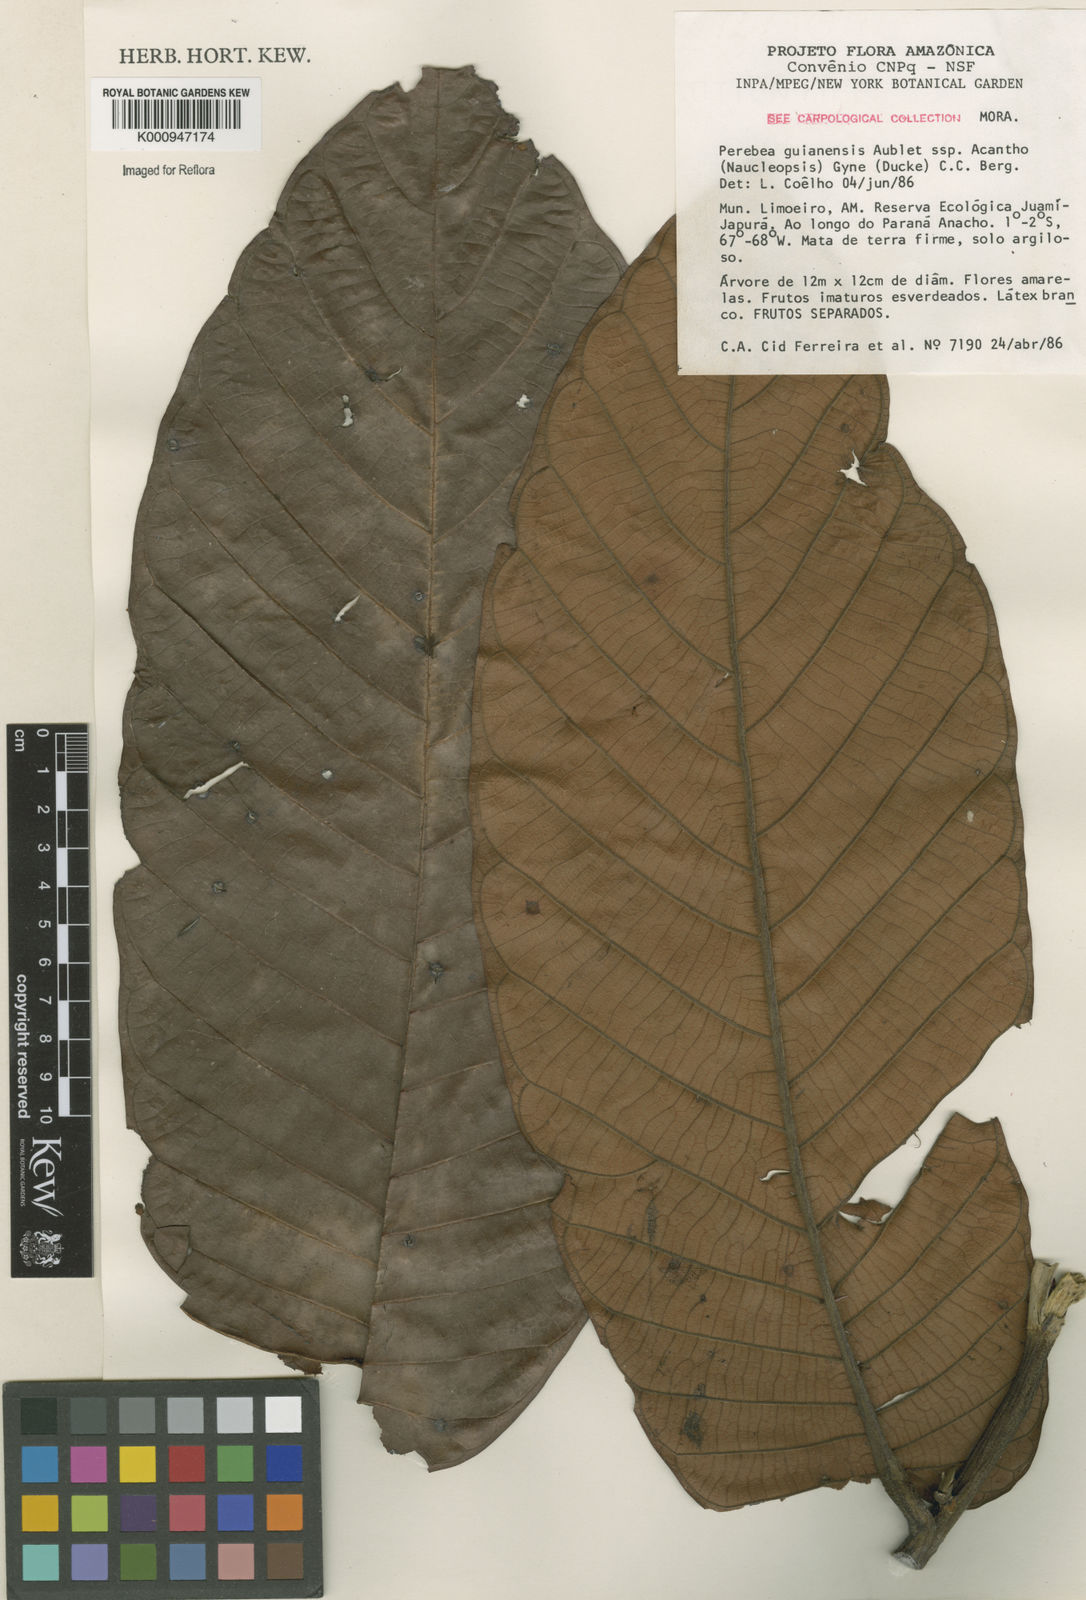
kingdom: Plantae
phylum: Tracheophyta
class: Magnoliopsida
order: Rosales
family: Moraceae
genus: Perebea
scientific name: Perebea guianensis
